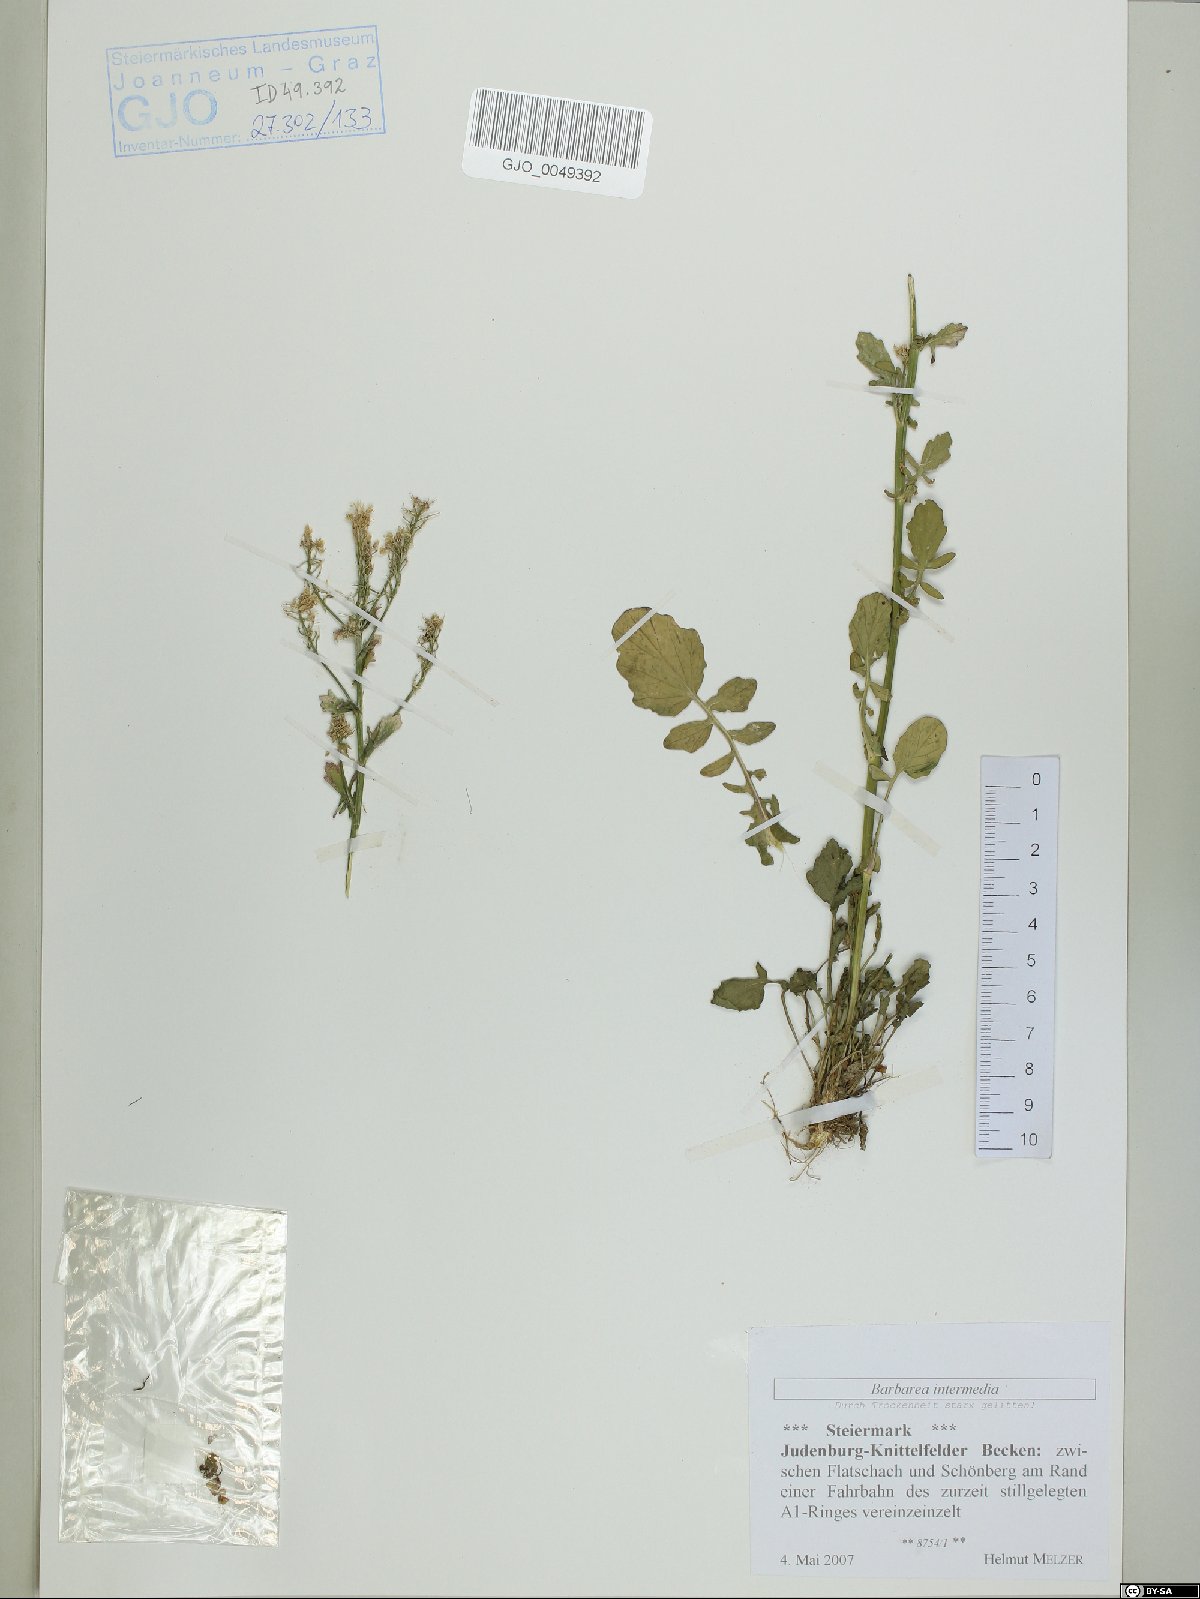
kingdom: Plantae
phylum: Tracheophyta
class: Magnoliopsida
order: Brassicales
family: Brassicaceae
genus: Barbarea
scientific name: Barbarea intermedia
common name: Medium-flowered winter-cress
